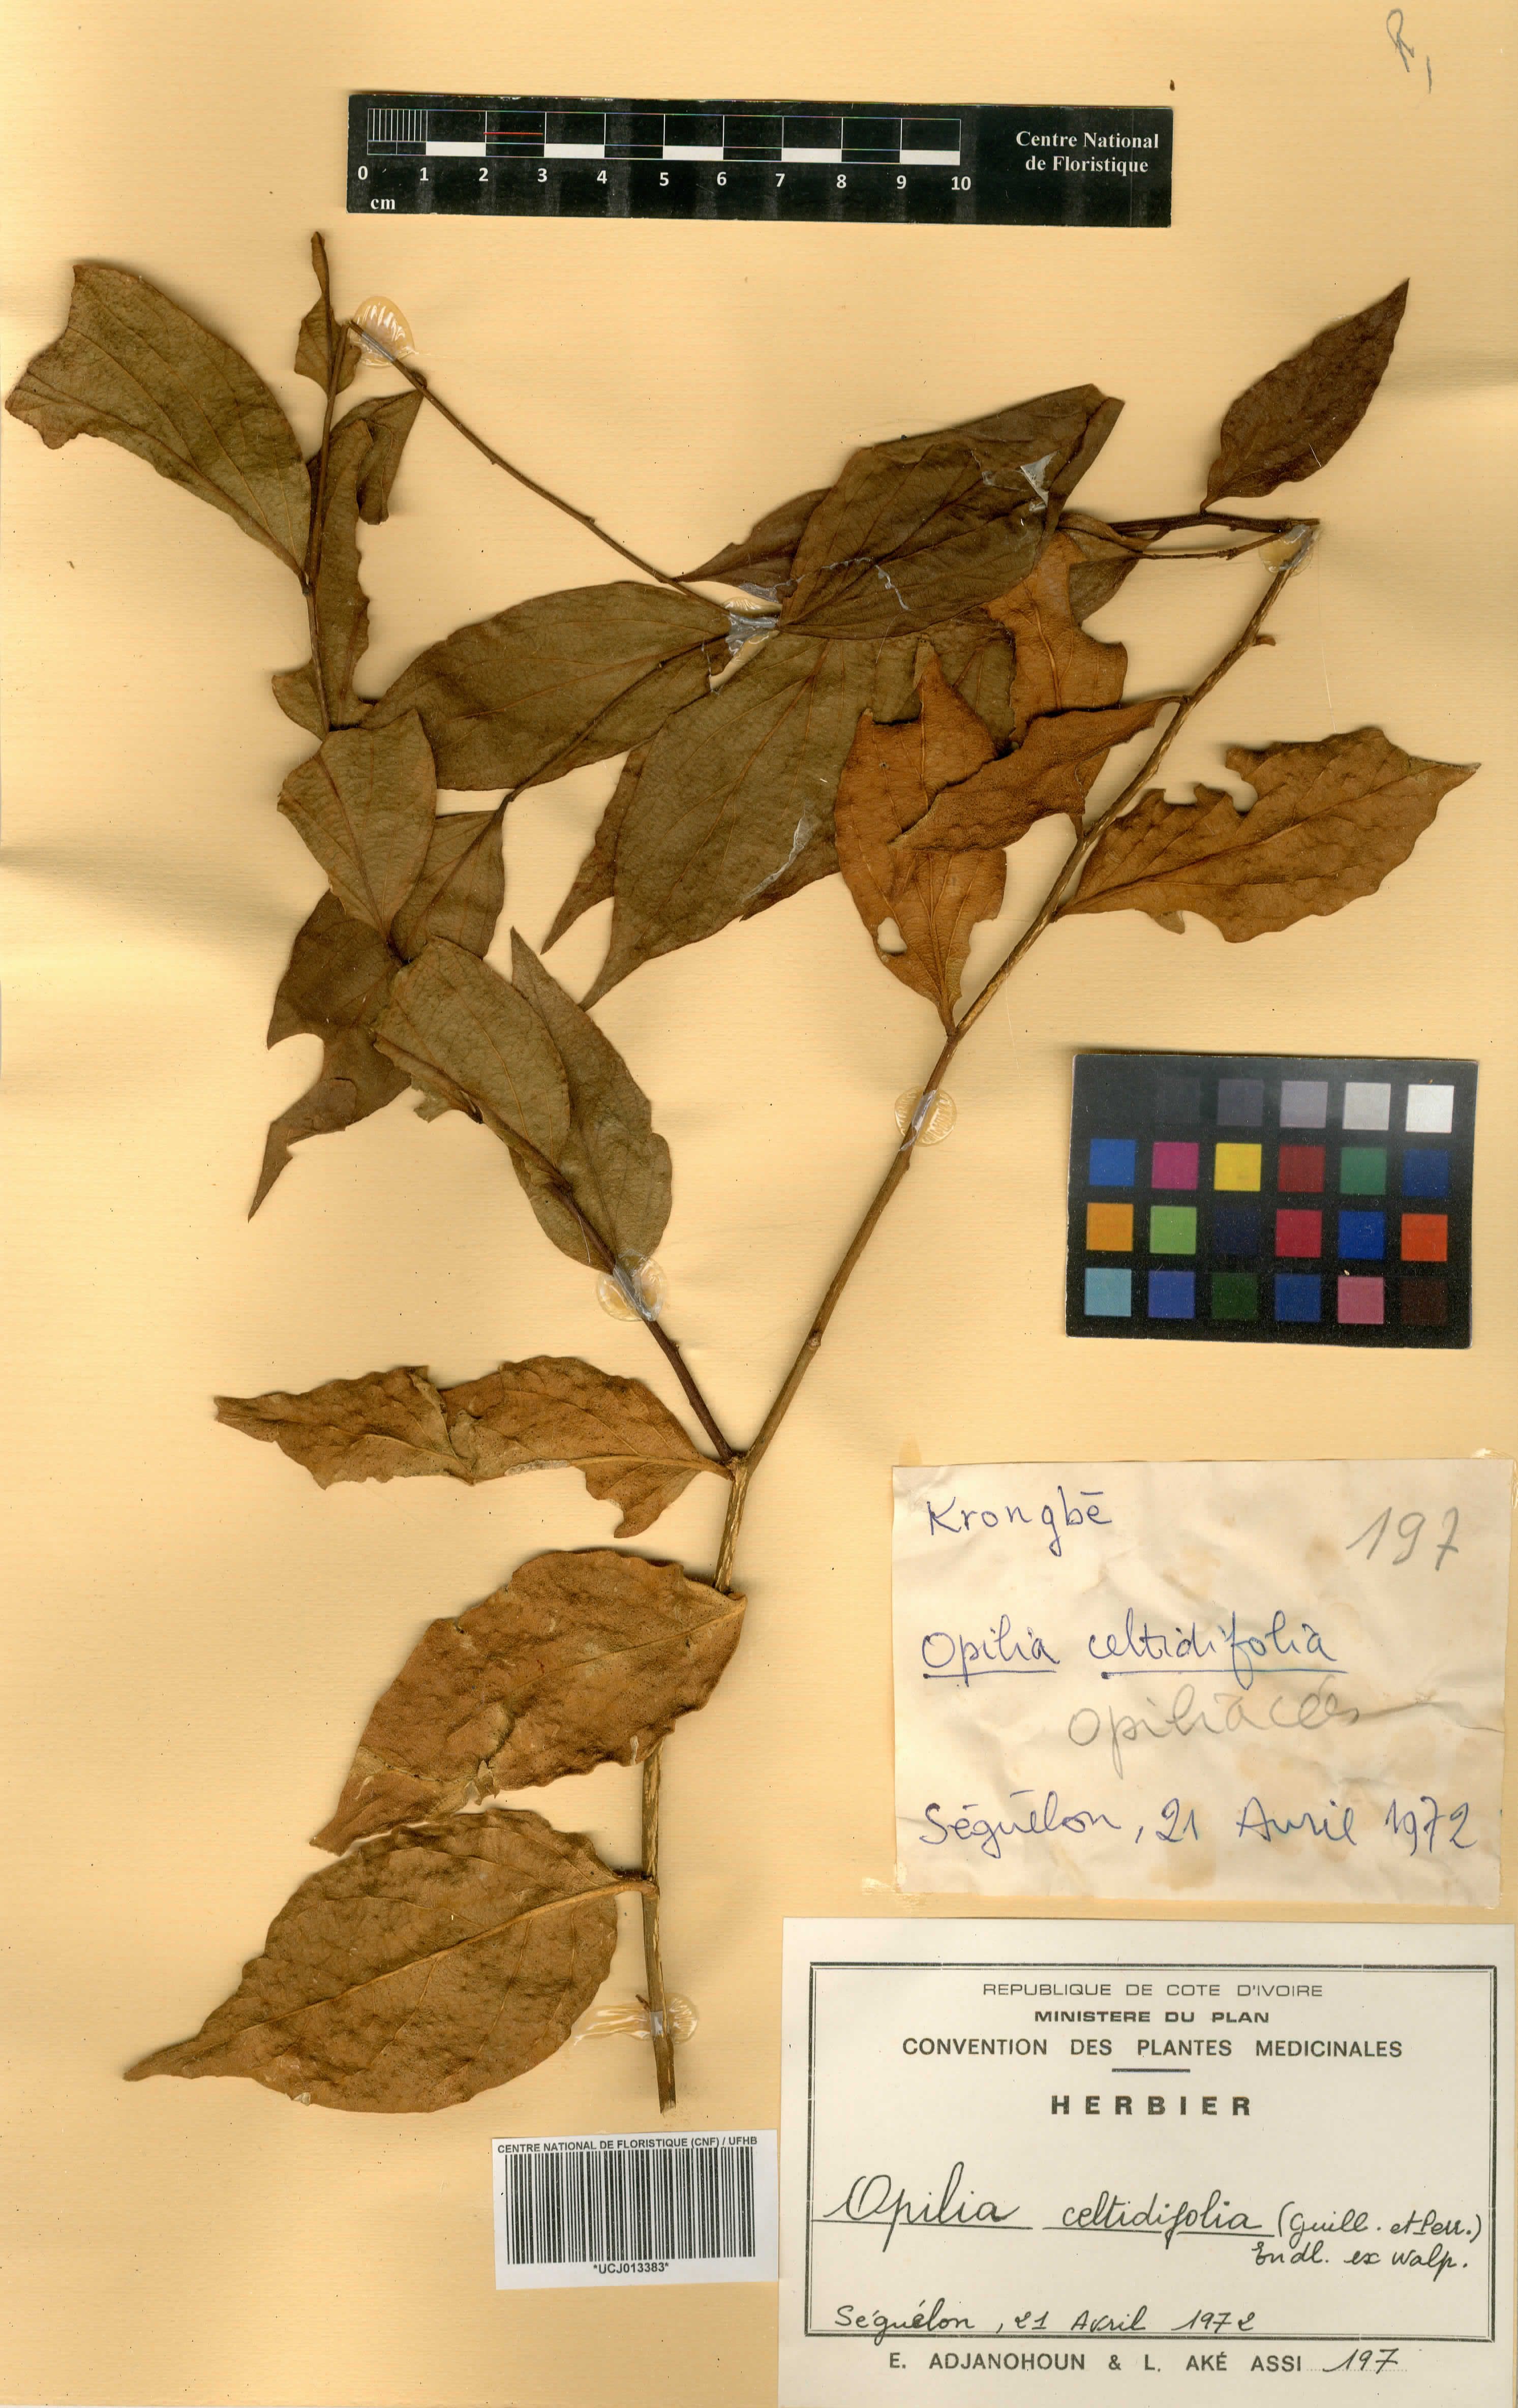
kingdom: Plantae
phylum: Tracheophyta
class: Magnoliopsida
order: Santalales
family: Opiliaceae
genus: Opilia
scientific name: Opilia amentacea
